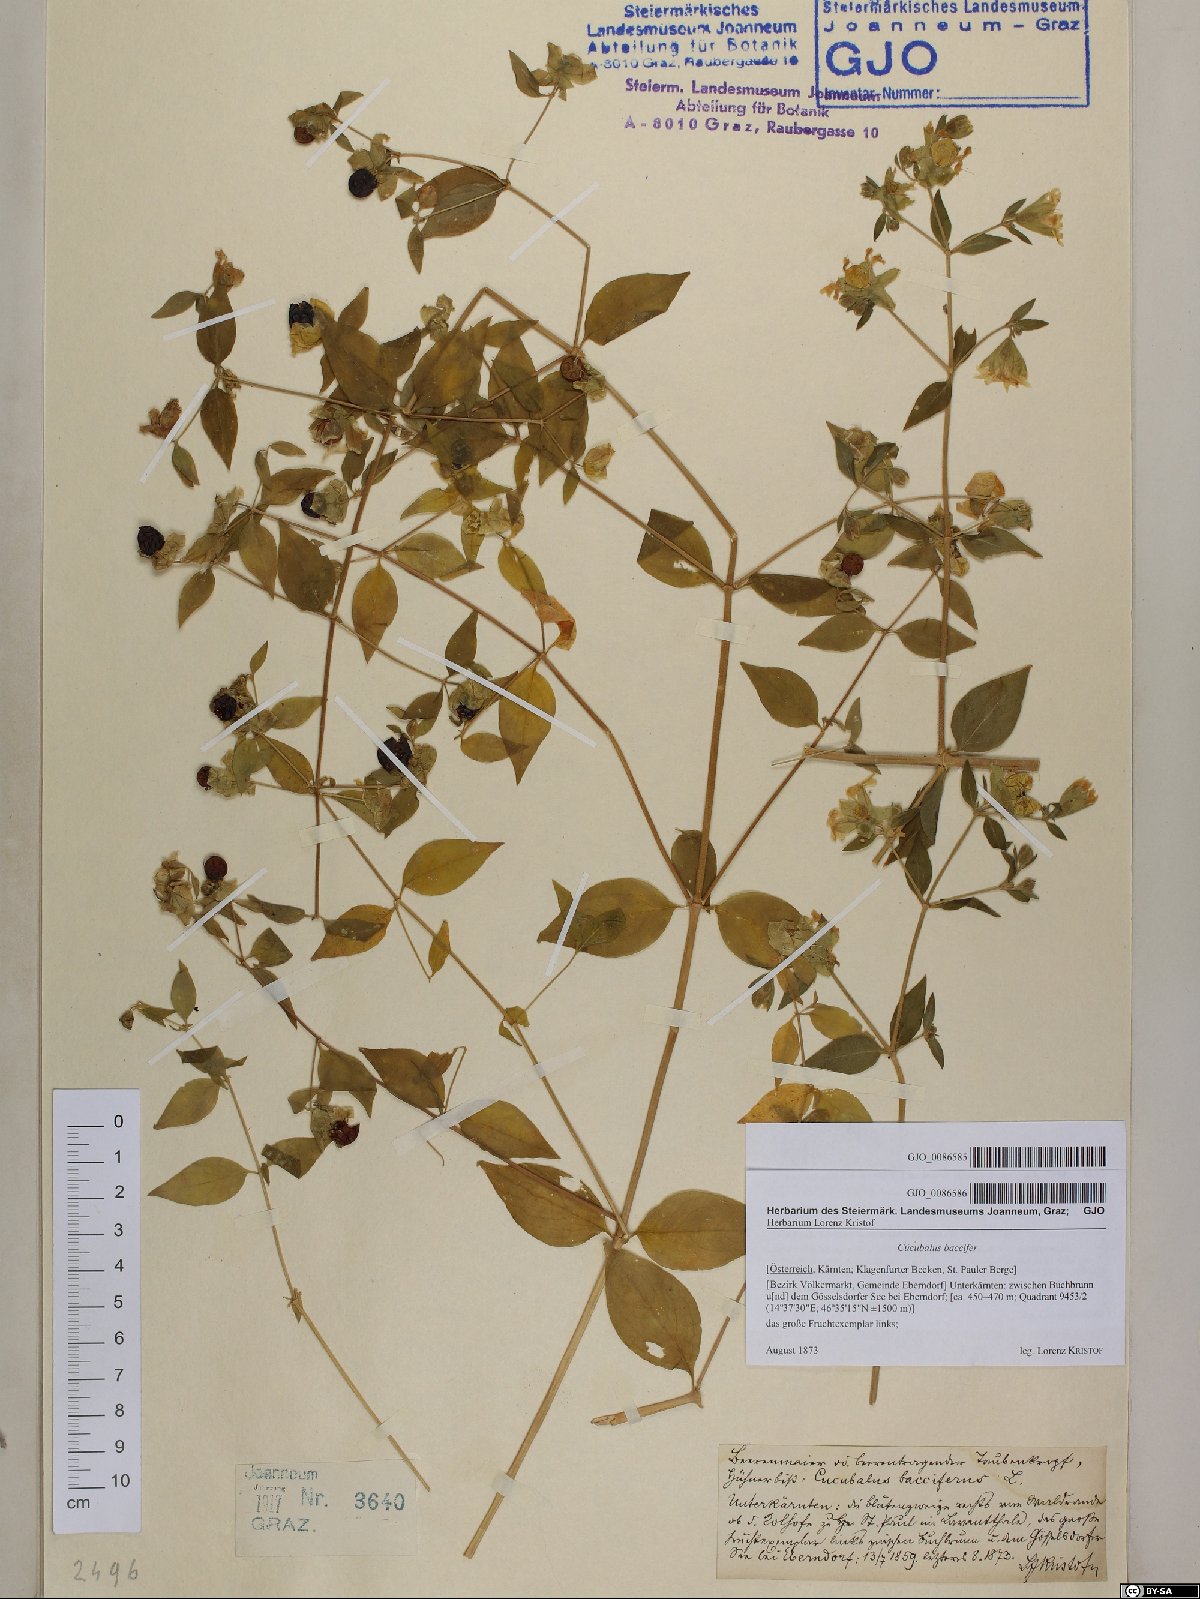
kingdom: Plantae
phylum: Tracheophyta
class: Magnoliopsida
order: Caryophyllales
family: Caryophyllaceae
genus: Silene
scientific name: Silene baccifera
